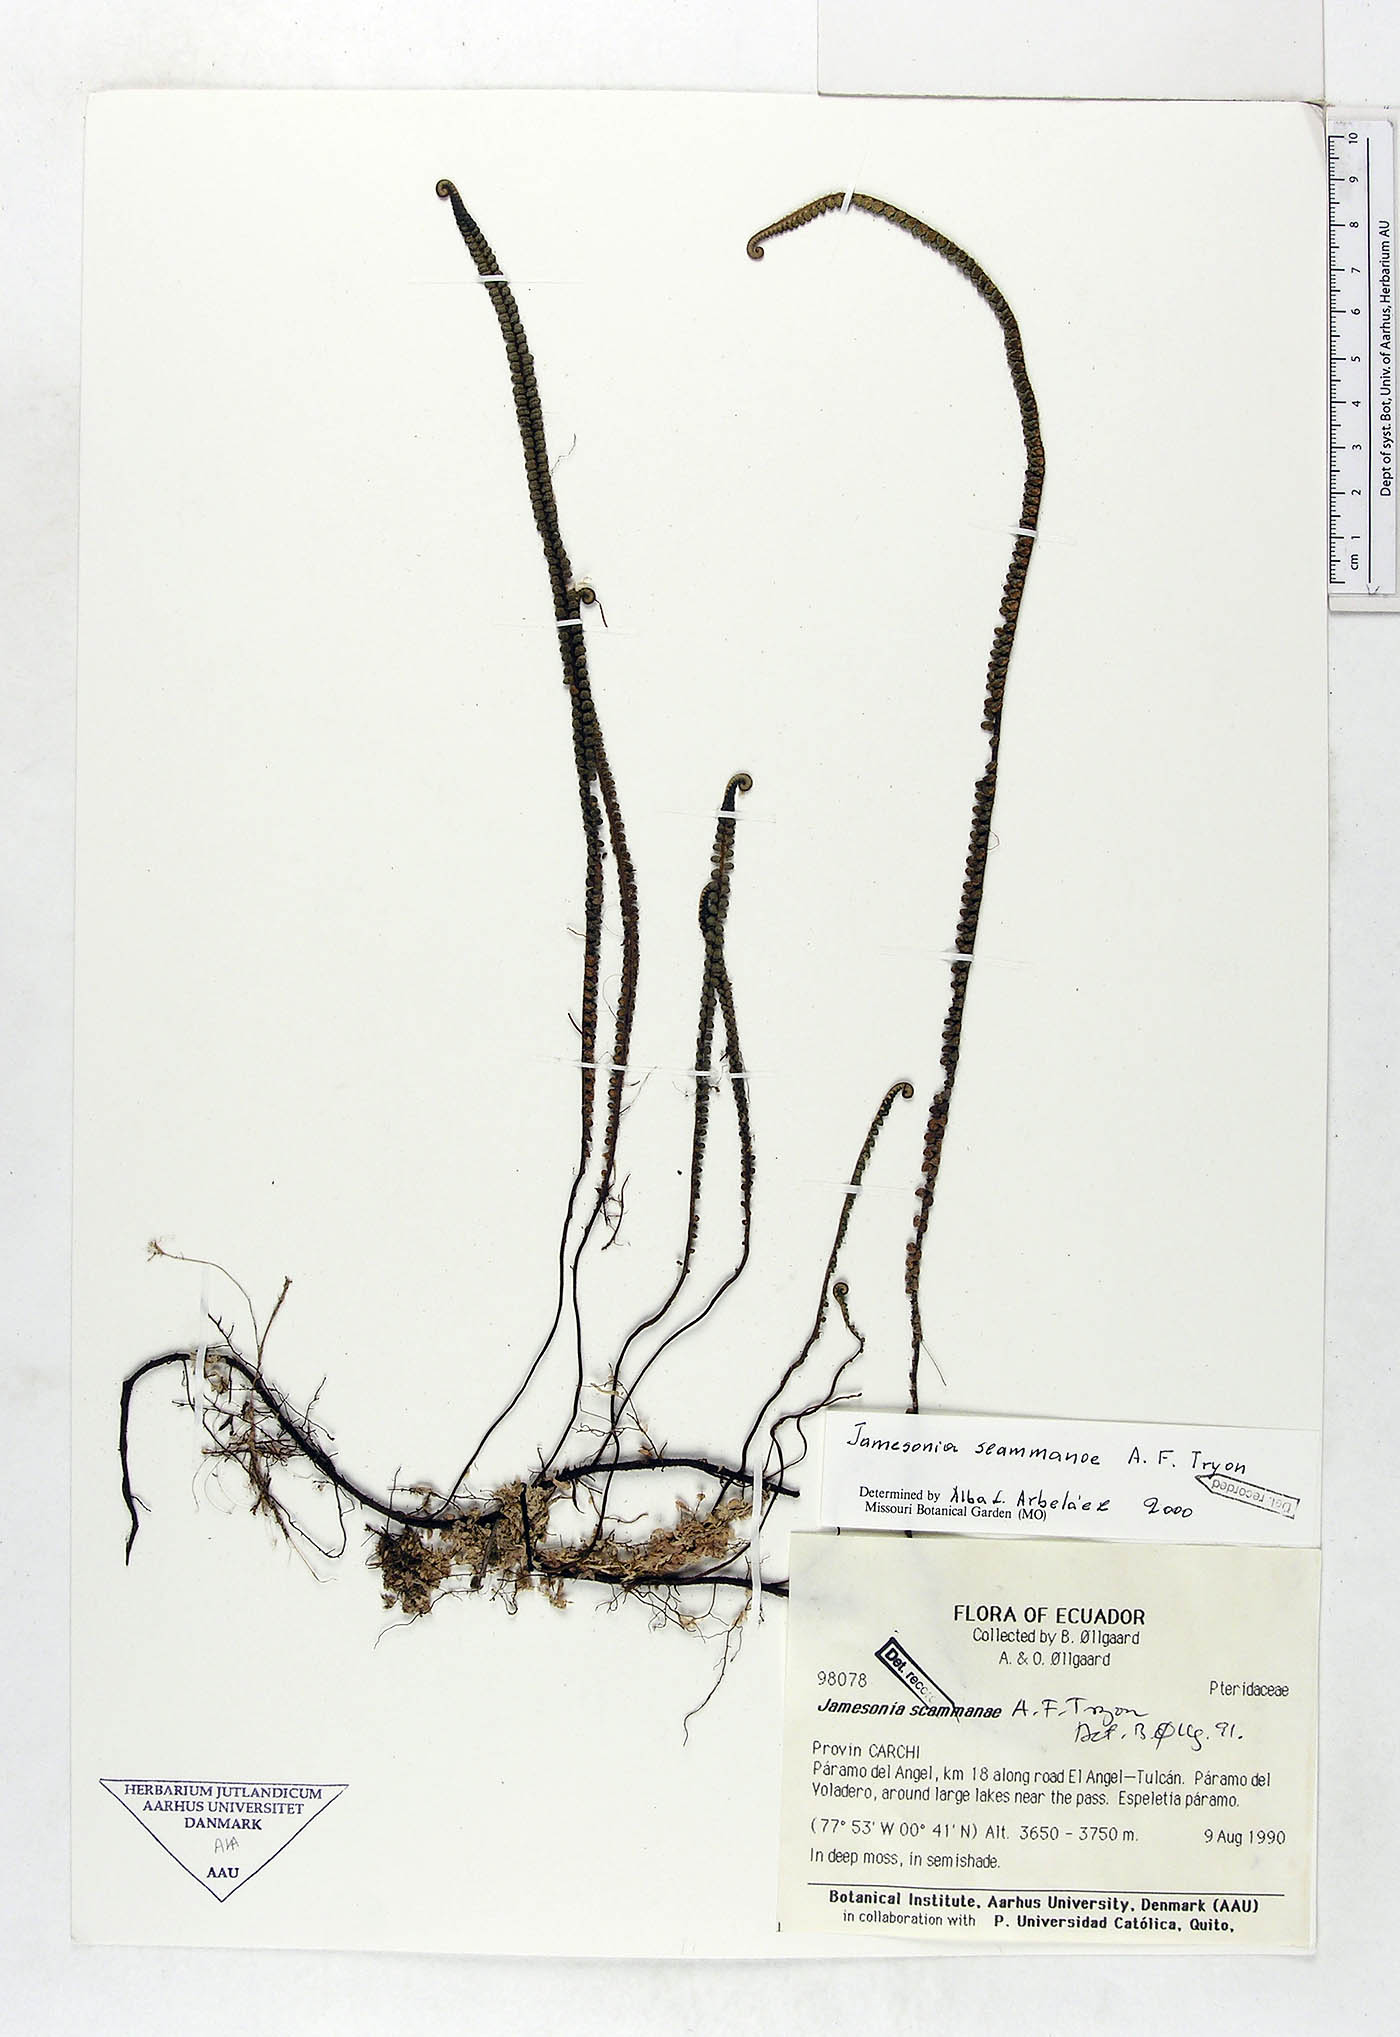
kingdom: Plantae
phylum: Tracheophyta
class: Polypodiopsida
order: Polypodiales
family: Pteridaceae
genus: Jamesonia
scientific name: Jamesonia scammanae
